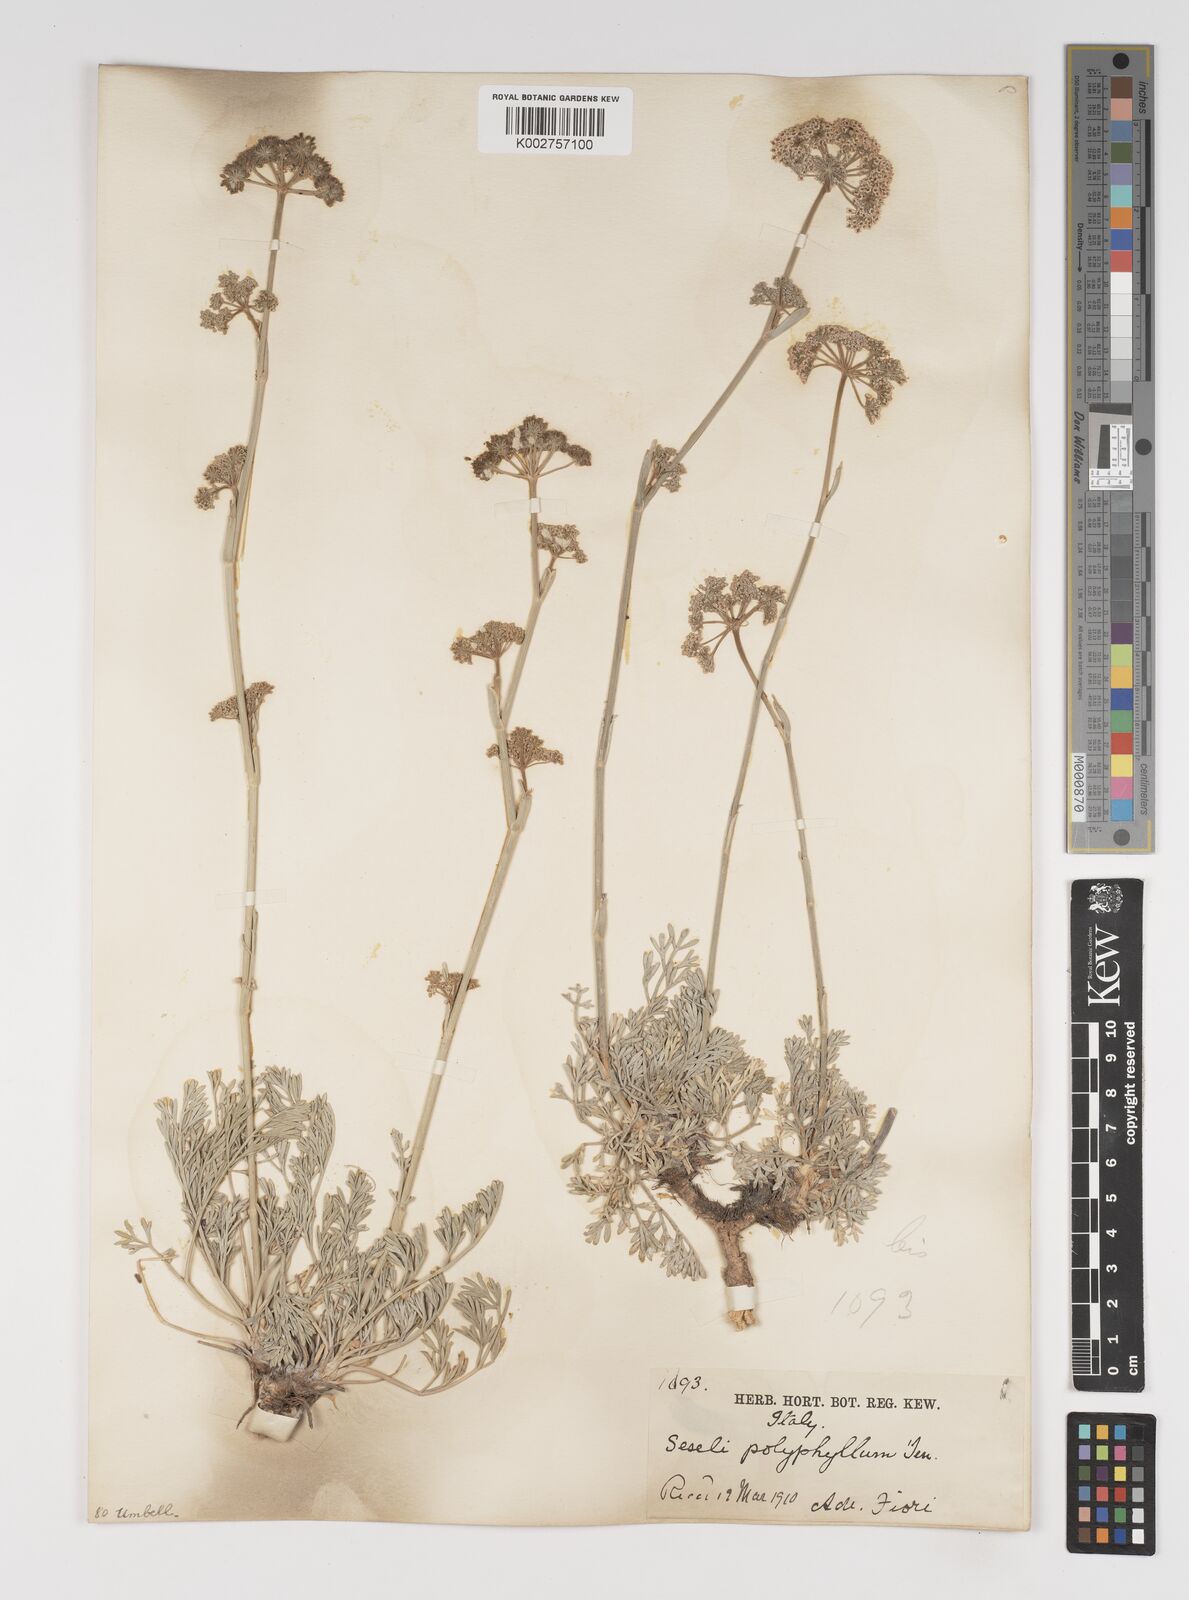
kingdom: Plantae
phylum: Tracheophyta
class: Magnoliopsida
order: Apiales
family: Apiaceae
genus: Seseli
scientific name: Seseli montanum
